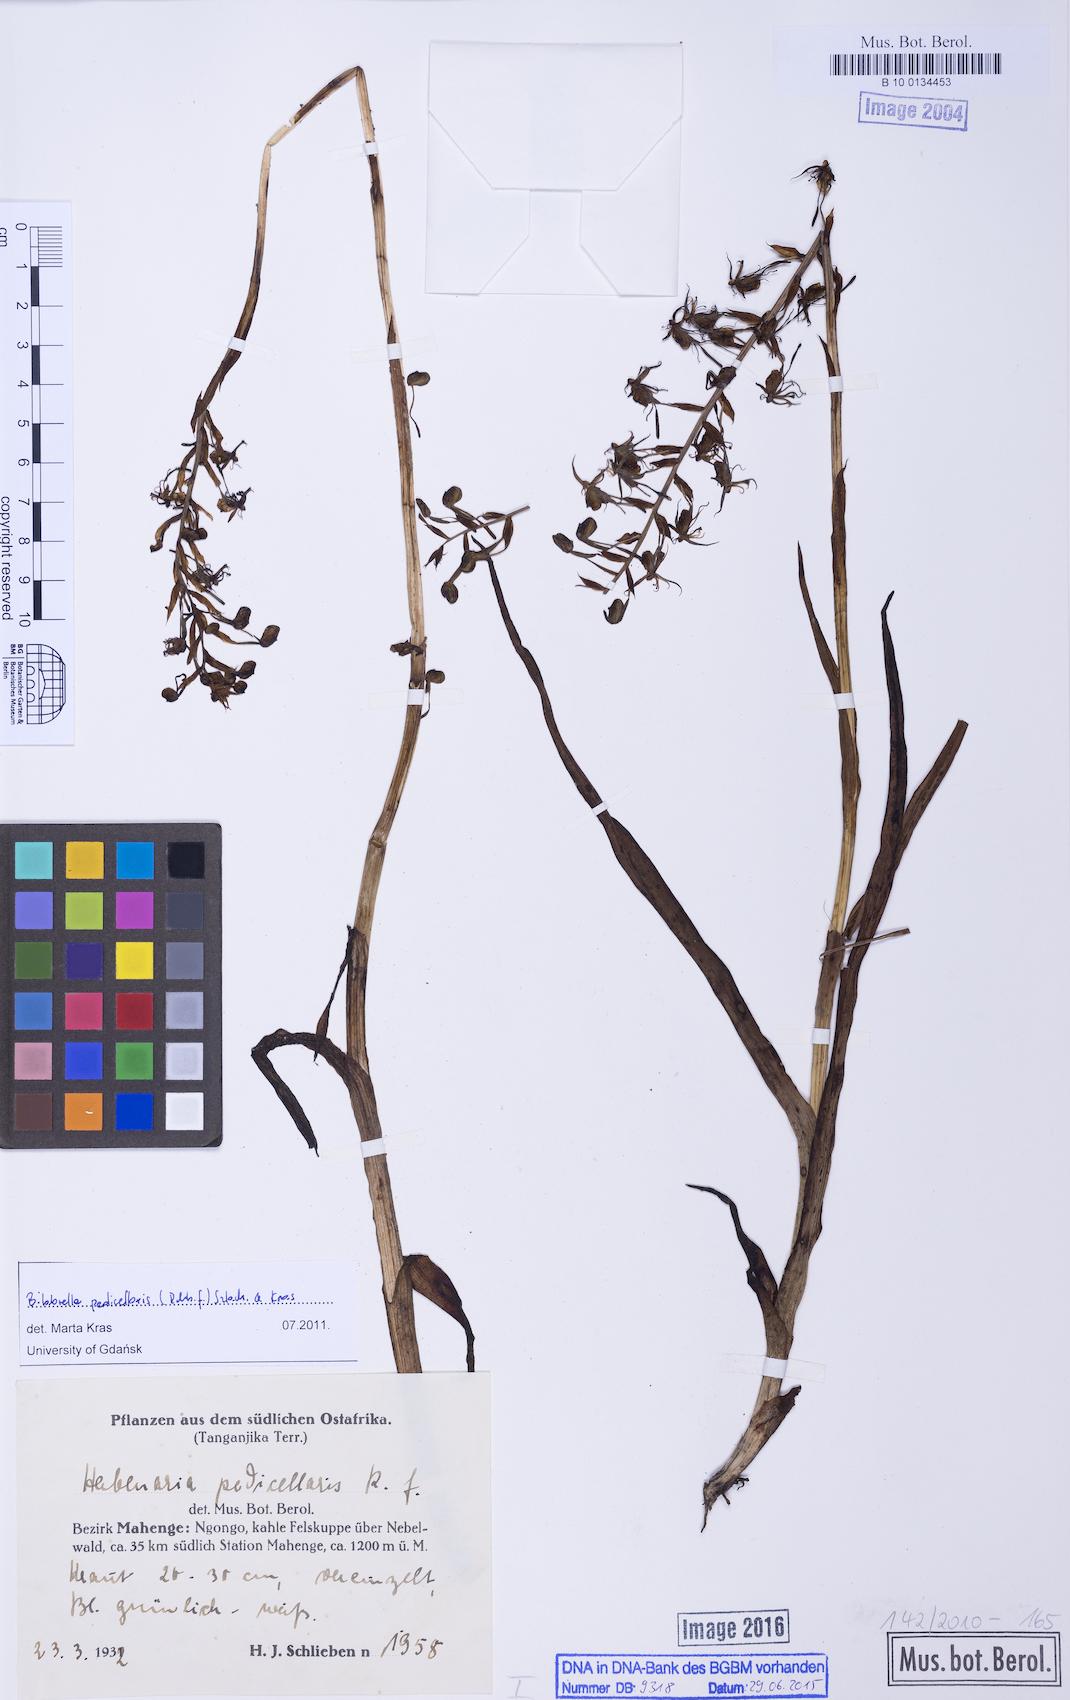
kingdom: Plantae
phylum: Tracheophyta
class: Liliopsida
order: Asparagales
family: Orchidaceae
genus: Habenaria
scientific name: Habenaria ichneumonea
